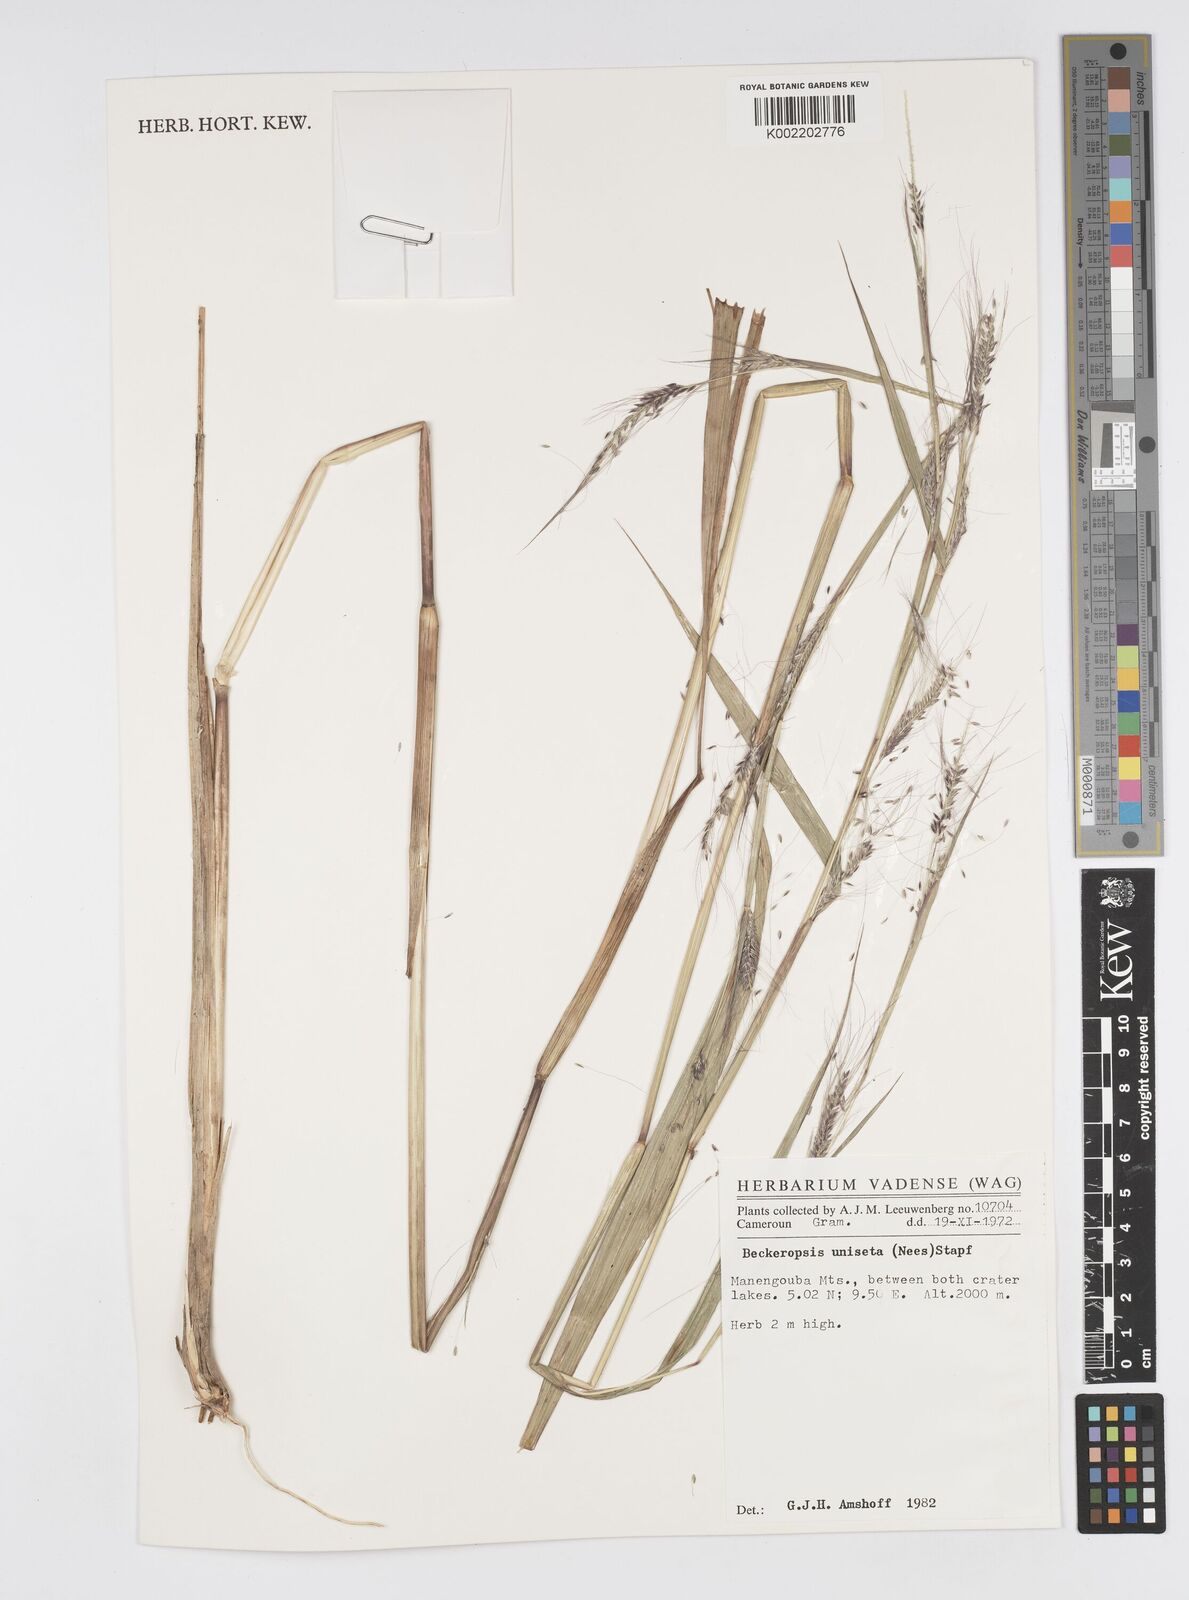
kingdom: Plantae
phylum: Tracheophyta
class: Liliopsida
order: Poales
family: Poaceae
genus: Cenchrus
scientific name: Cenchrus unisetus
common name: Natal grass
